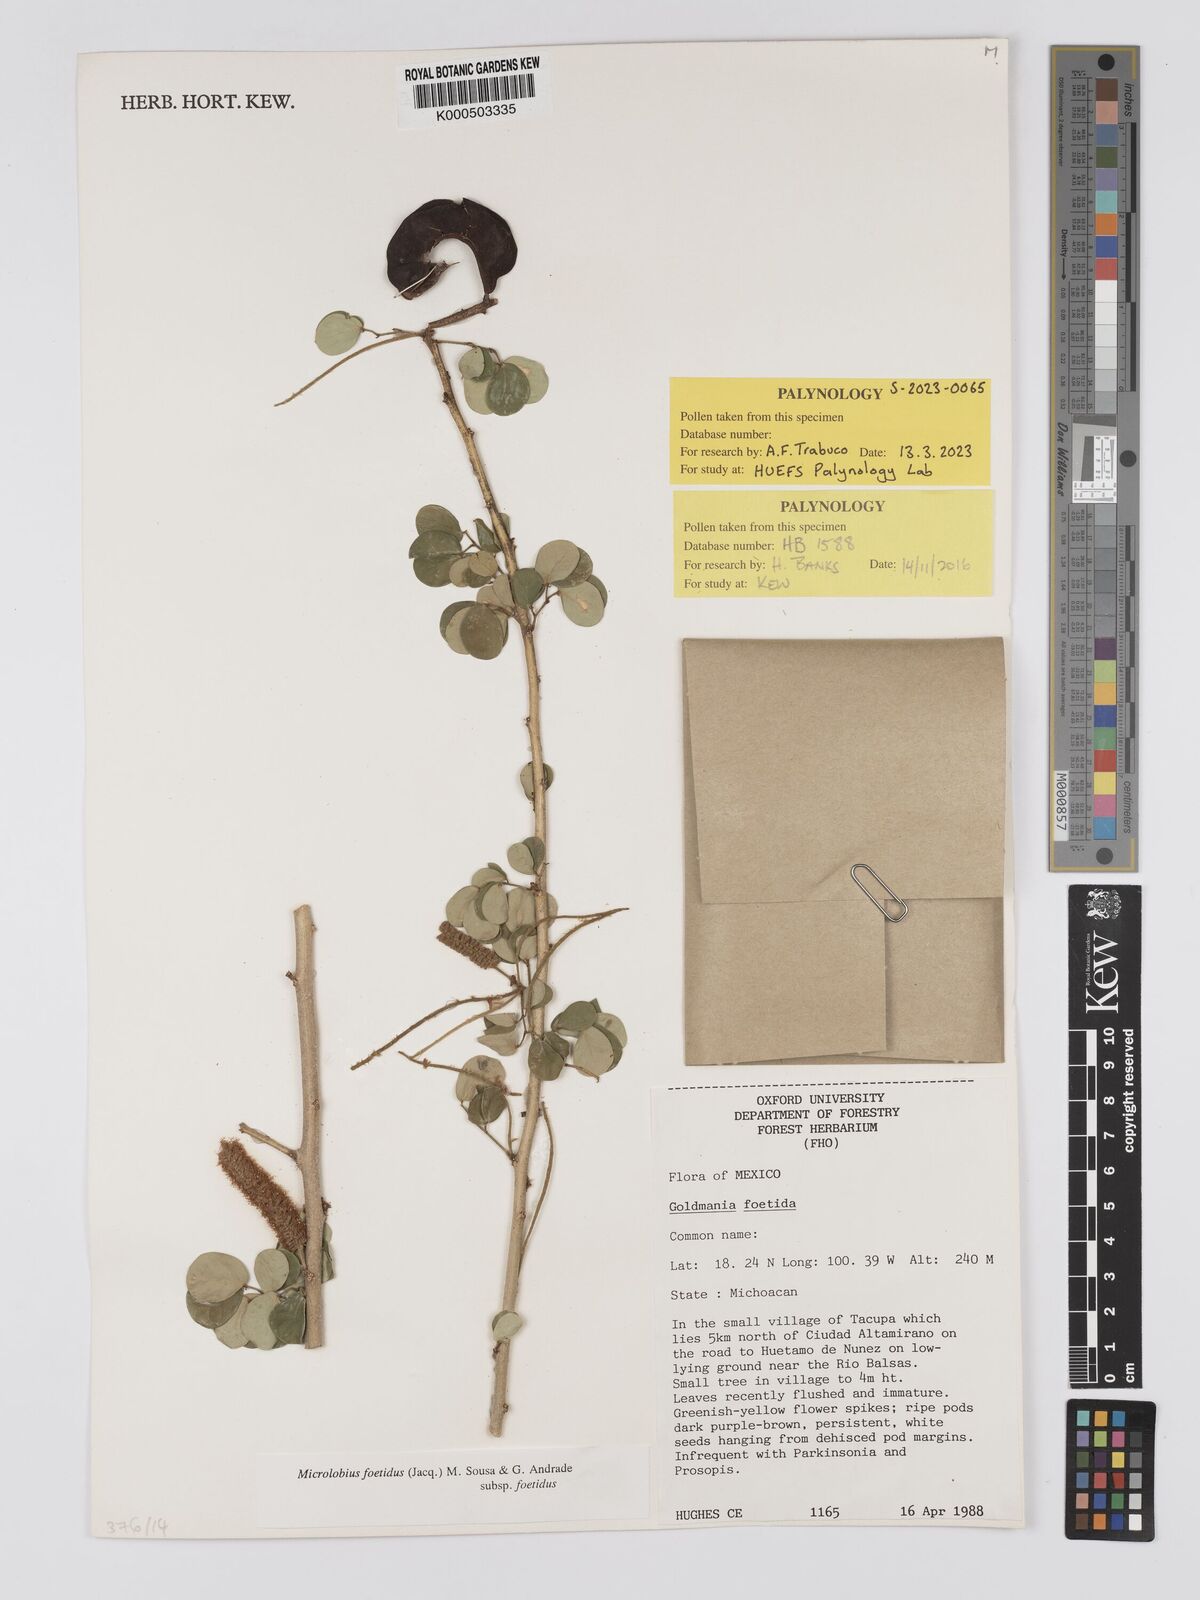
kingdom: Plantae
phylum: Tracheophyta
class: Magnoliopsida
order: Fabales
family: Fabaceae
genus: Microlobius
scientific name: Microlobius foetidus
